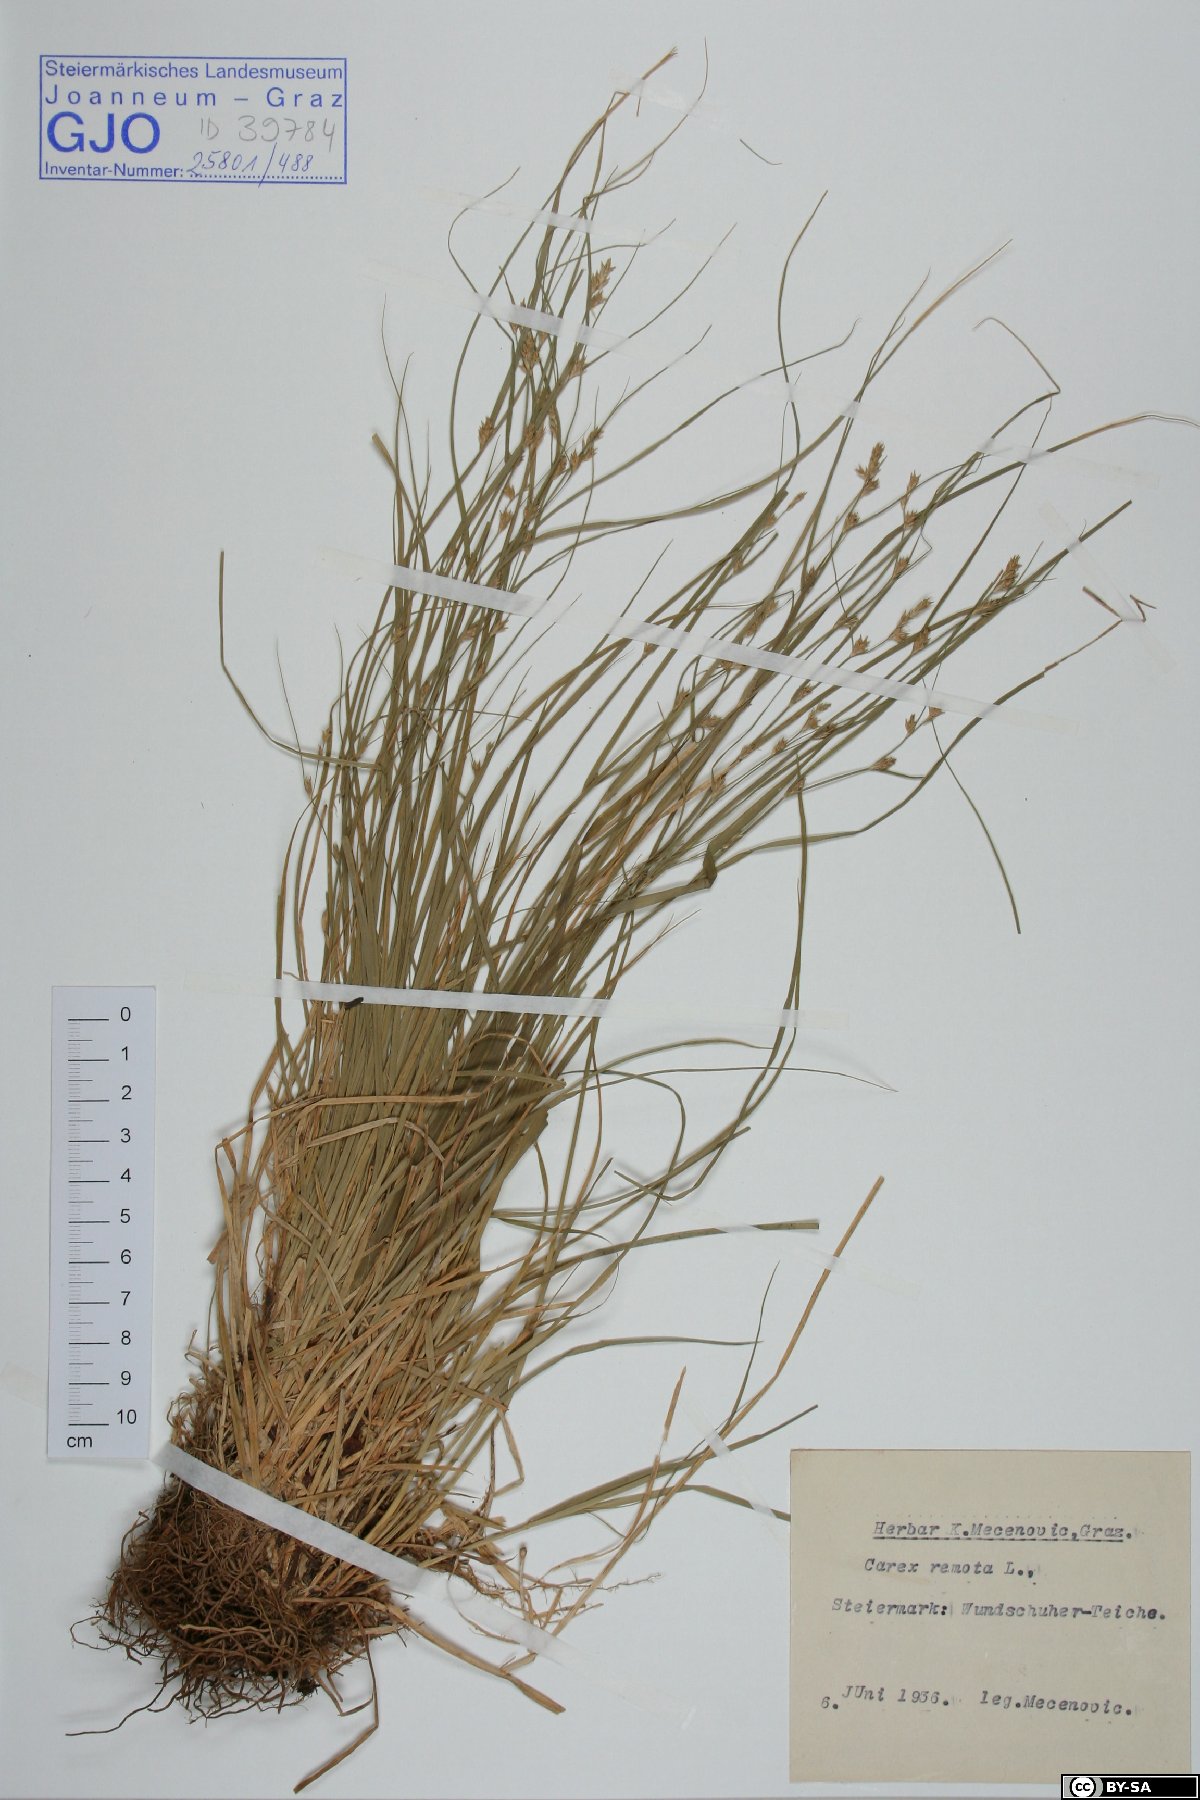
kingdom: Plantae
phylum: Tracheophyta
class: Liliopsida
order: Poales
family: Cyperaceae
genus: Carex
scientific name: Carex remota
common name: Remote sedge
